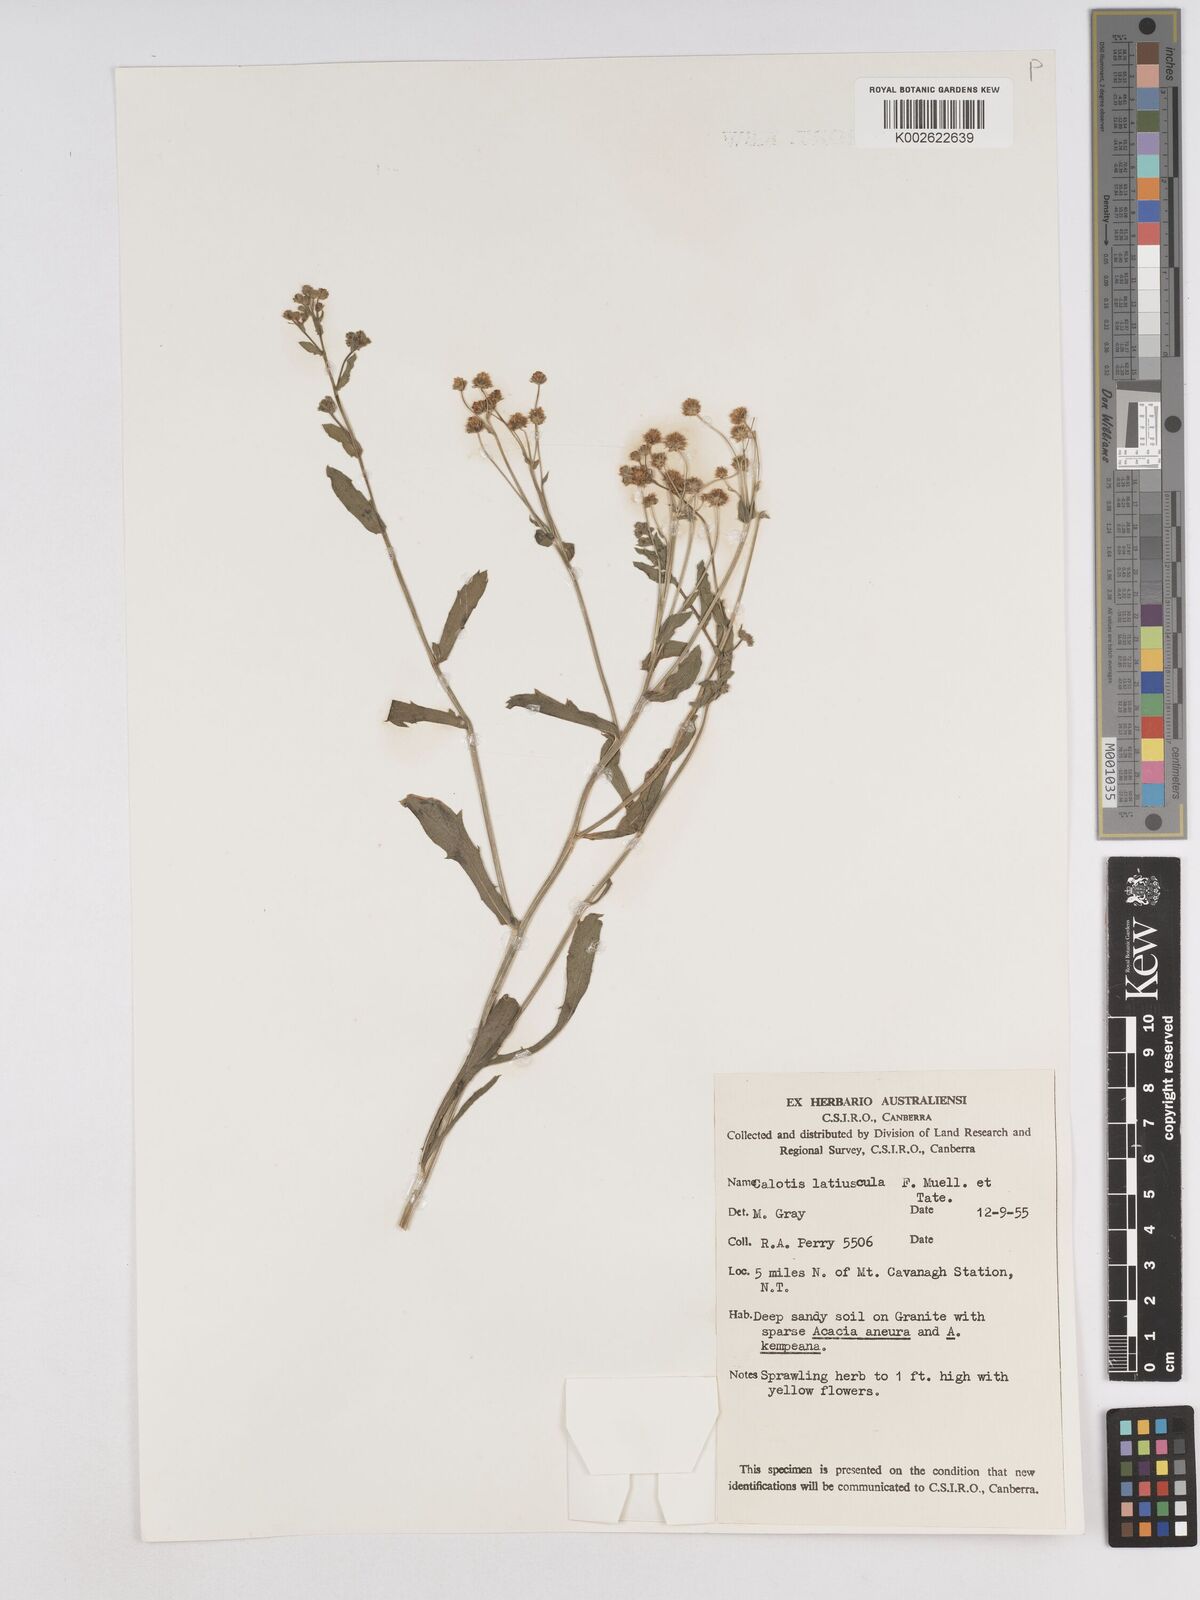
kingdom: Plantae
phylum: Tracheophyta
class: Magnoliopsida
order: Asterales
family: Asteraceae
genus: Calotis
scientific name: Calotis latiuscula
